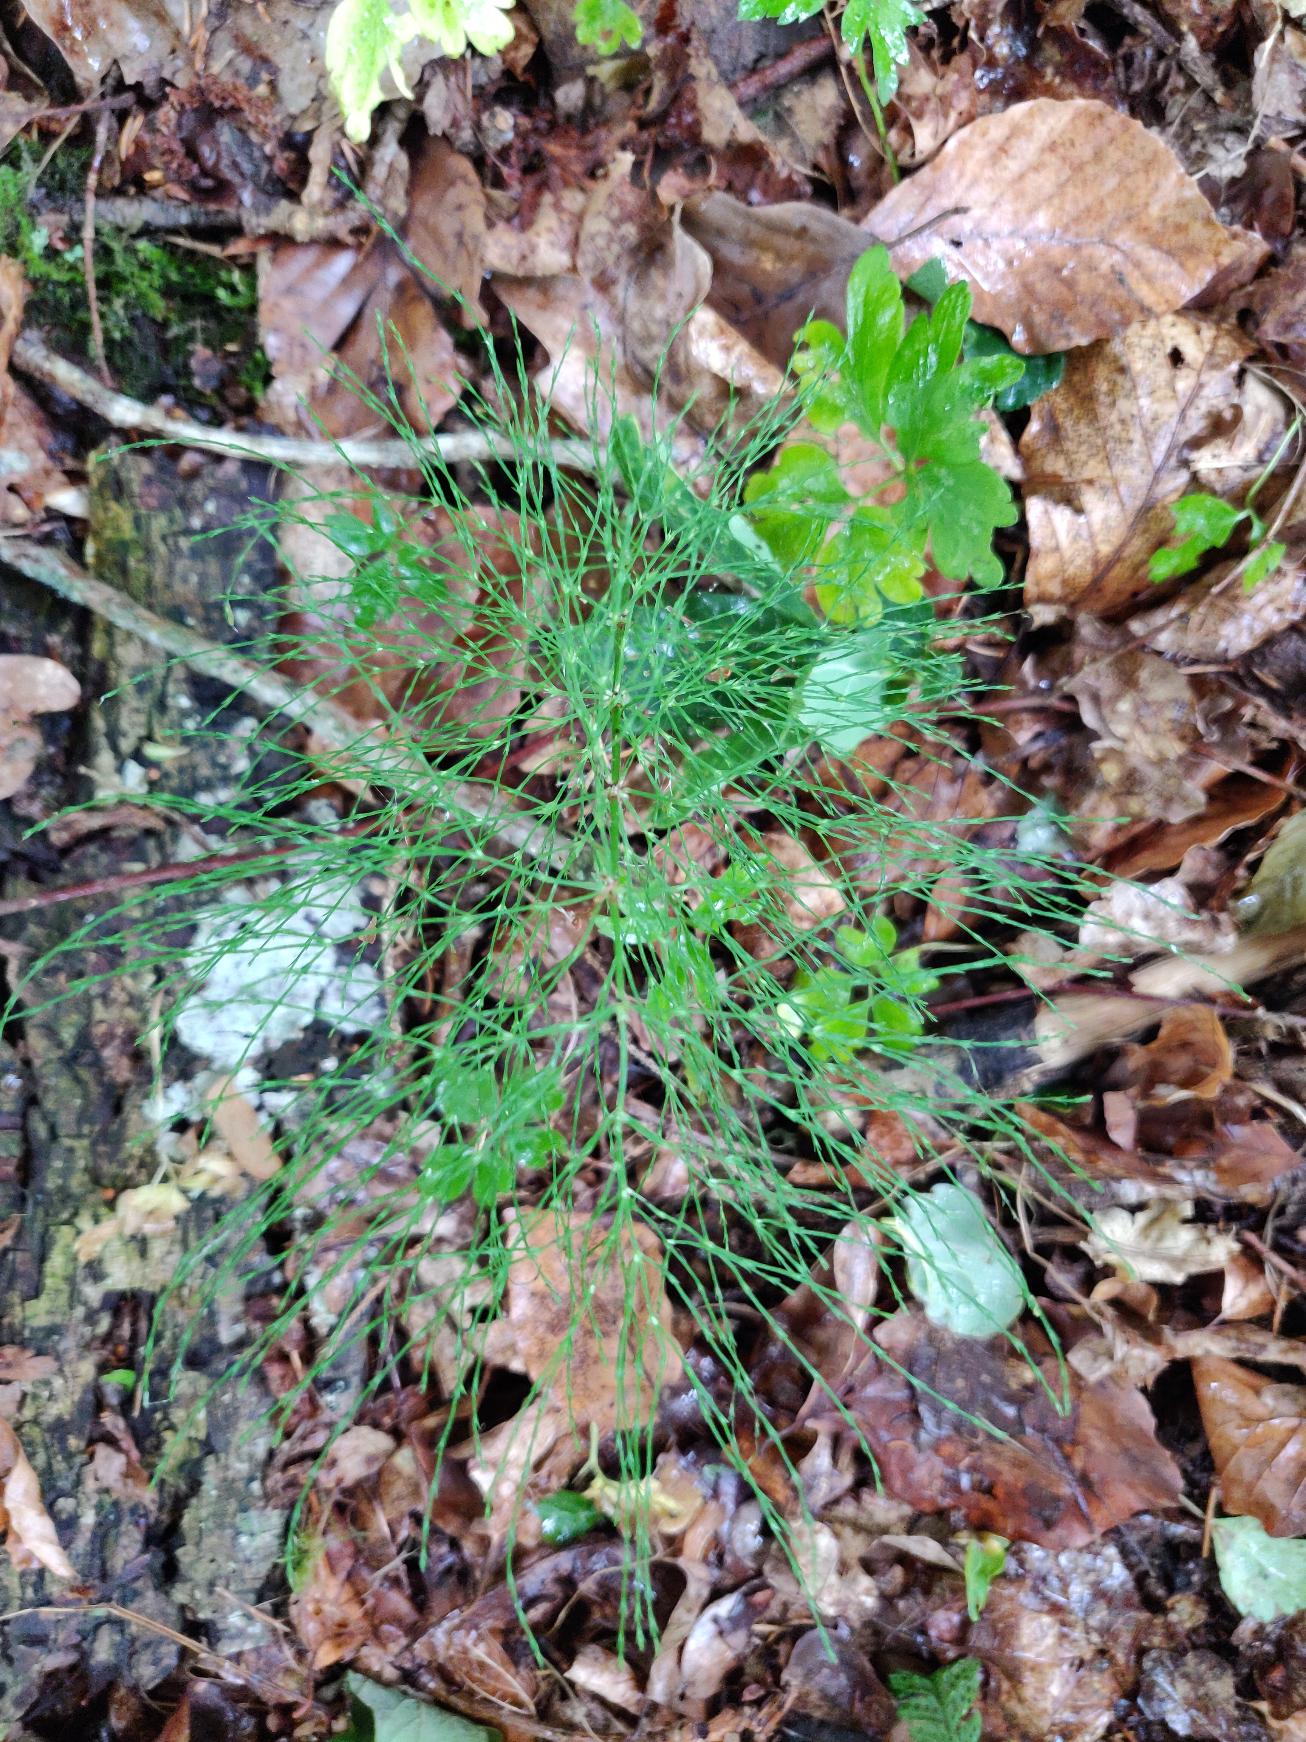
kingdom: Plantae
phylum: Tracheophyta
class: Polypodiopsida
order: Equisetales
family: Equisetaceae
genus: Equisetum
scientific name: Equisetum sylvaticum
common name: Skov-padderok
